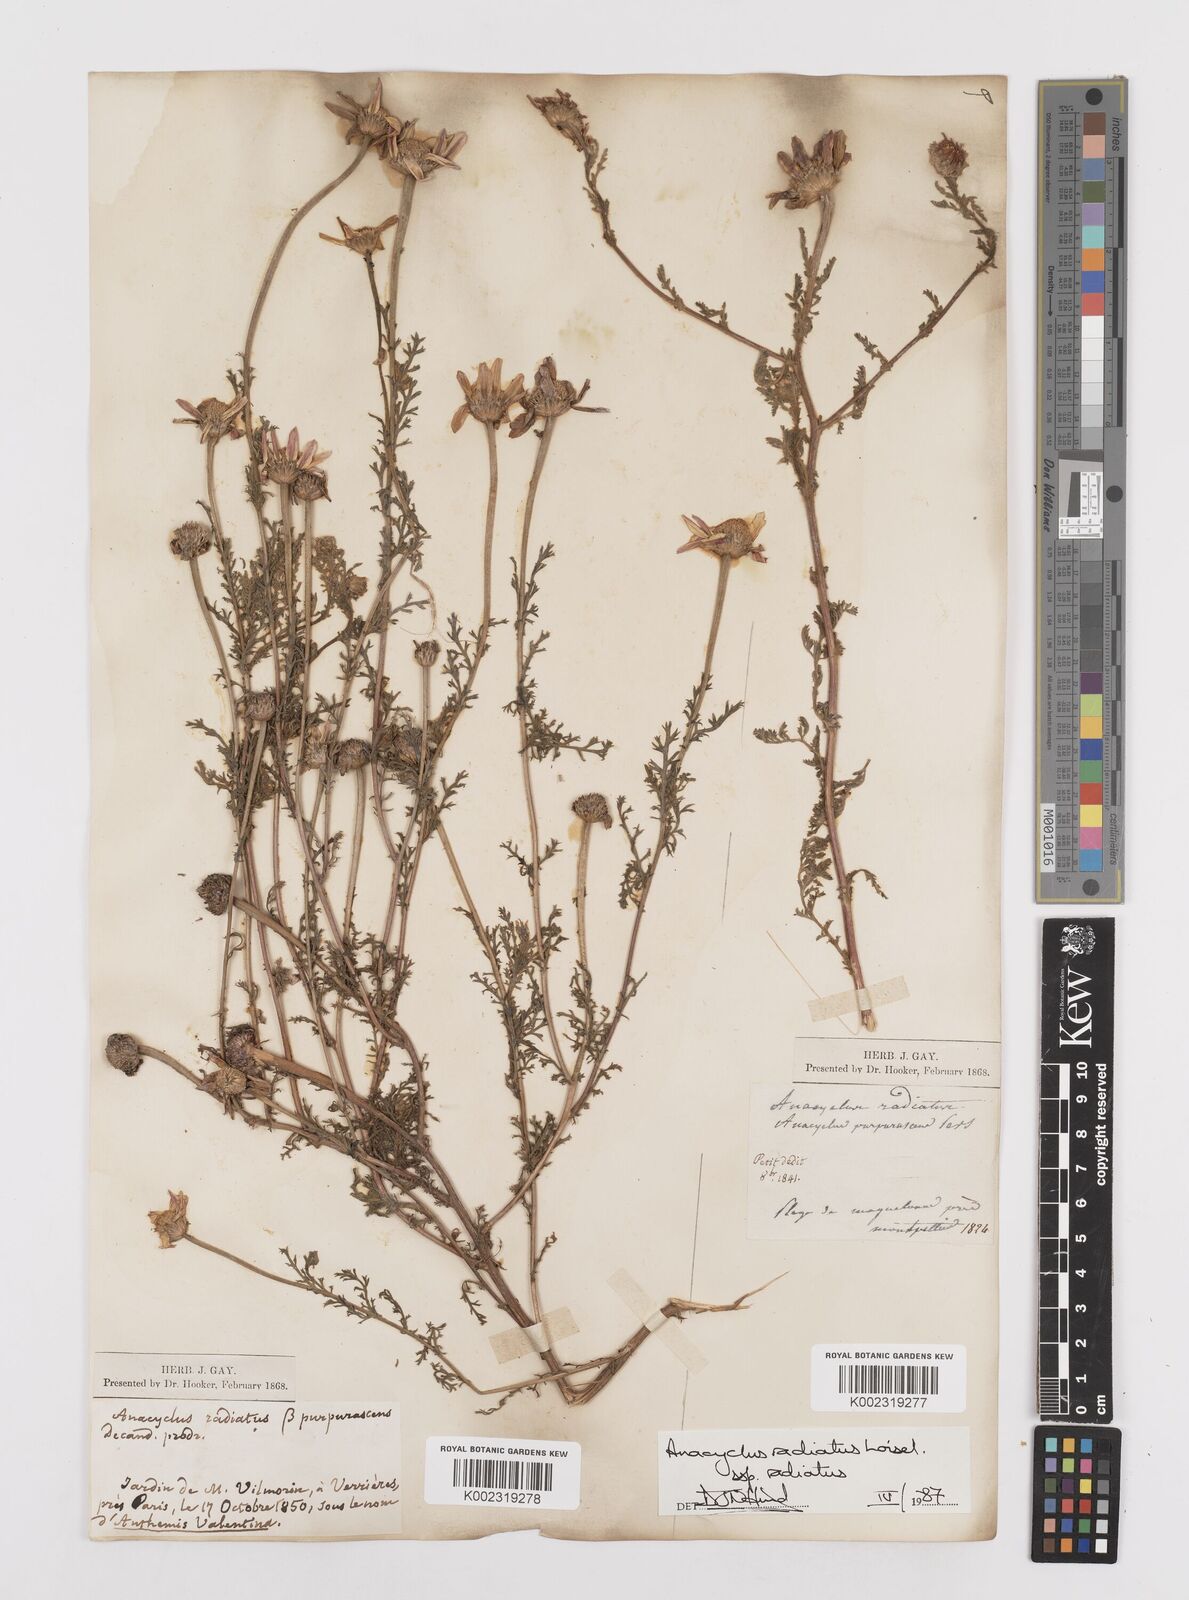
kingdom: Plantae
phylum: Tracheophyta
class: Magnoliopsida
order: Asterales
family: Asteraceae
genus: Anacyclus
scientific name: Anacyclus radiatus
